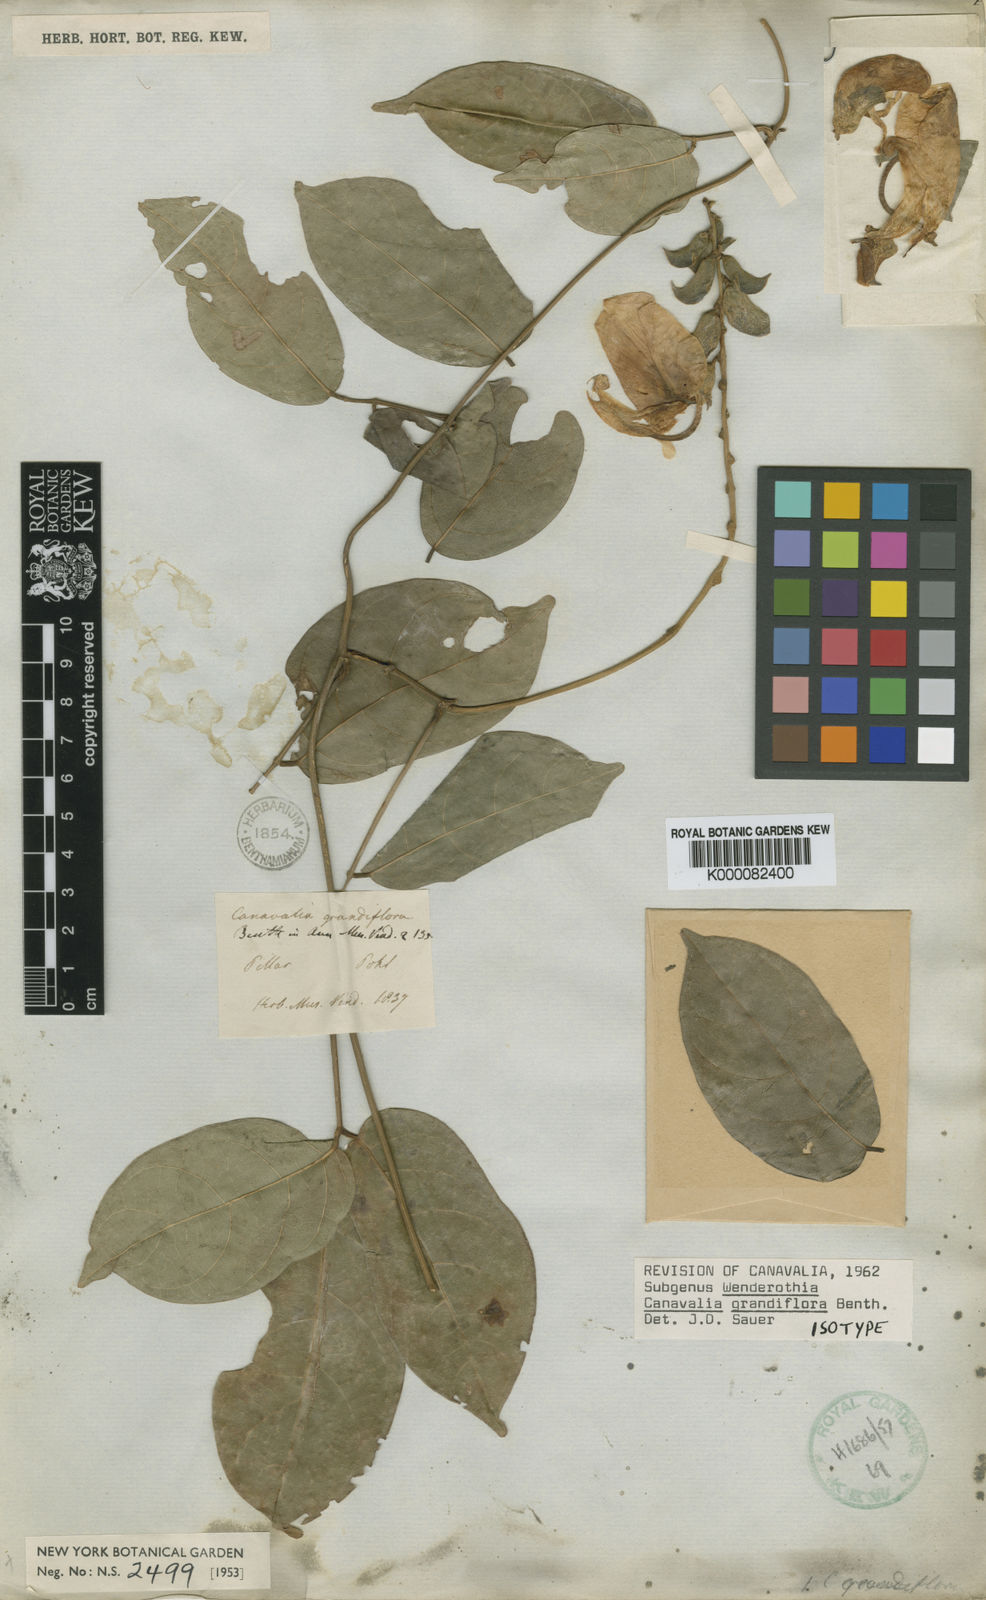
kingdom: Plantae
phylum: Tracheophyta
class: Magnoliopsida
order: Fabales
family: Fabaceae
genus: Canavalia
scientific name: Canavalia grandiflora
